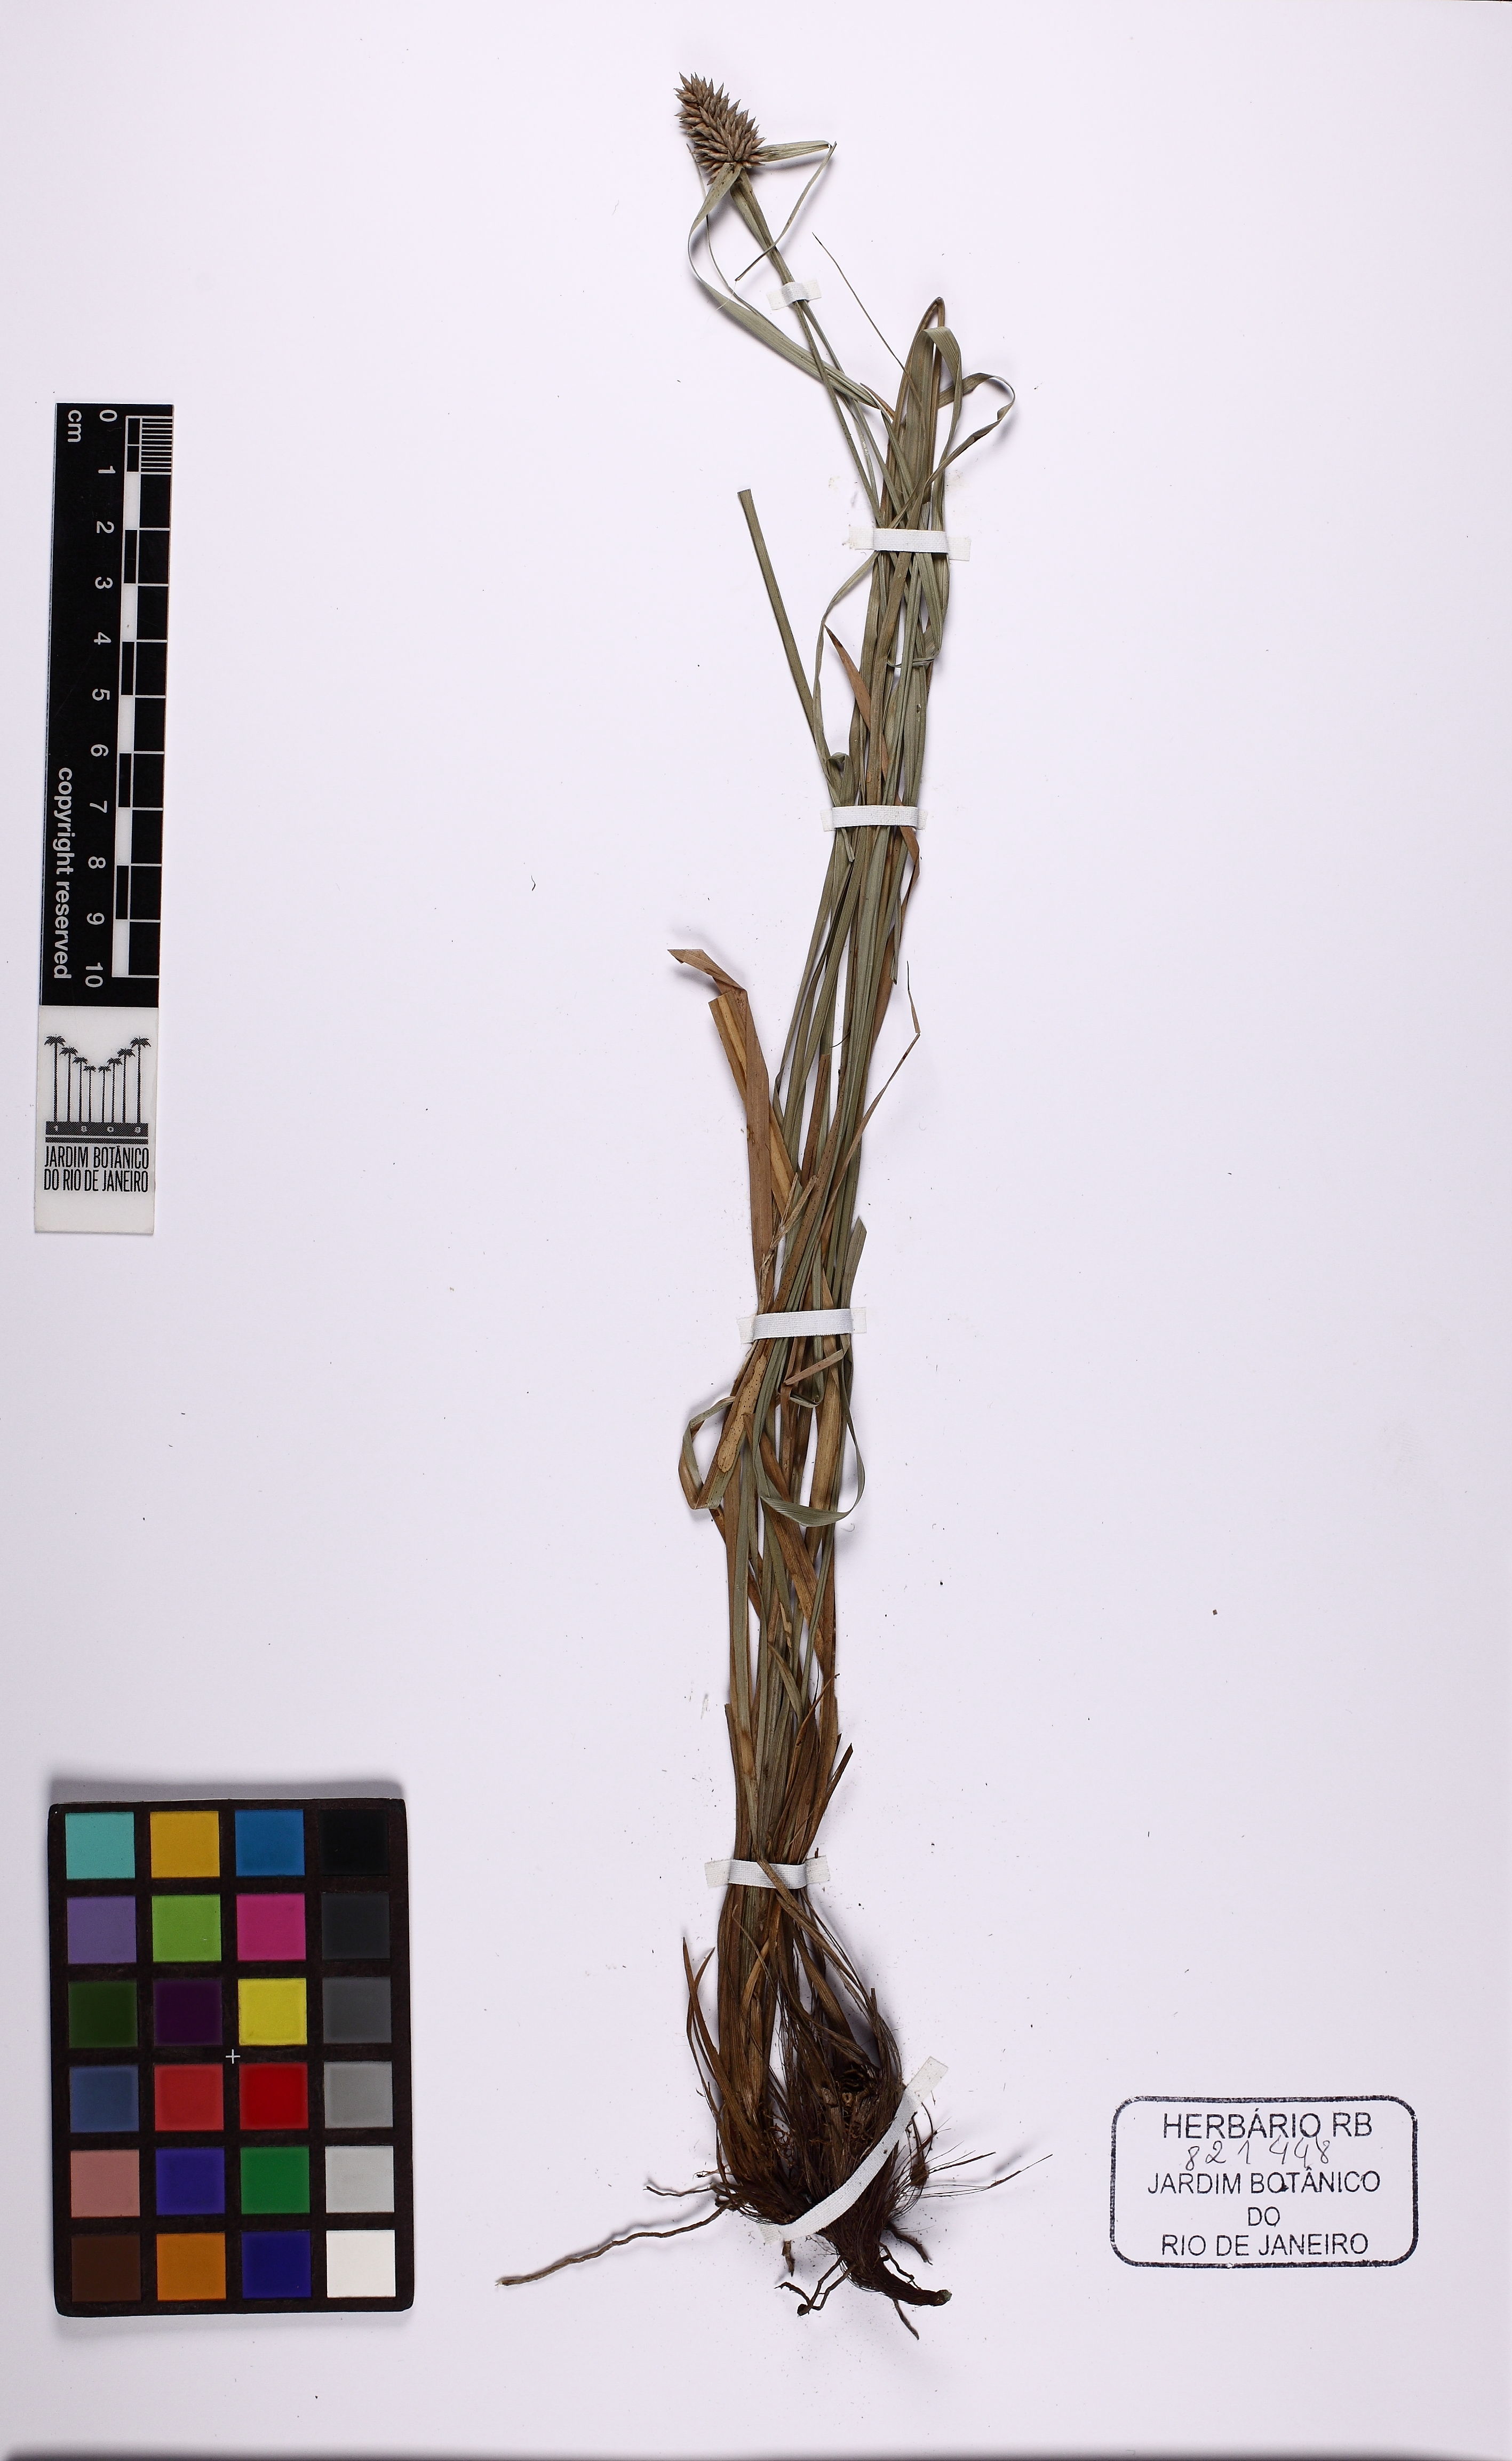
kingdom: Plantae
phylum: Tracheophyta
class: Liliopsida
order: Poales
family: Cyperaceae
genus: Rhynchospora
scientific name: Rhynchospora cephalotes
